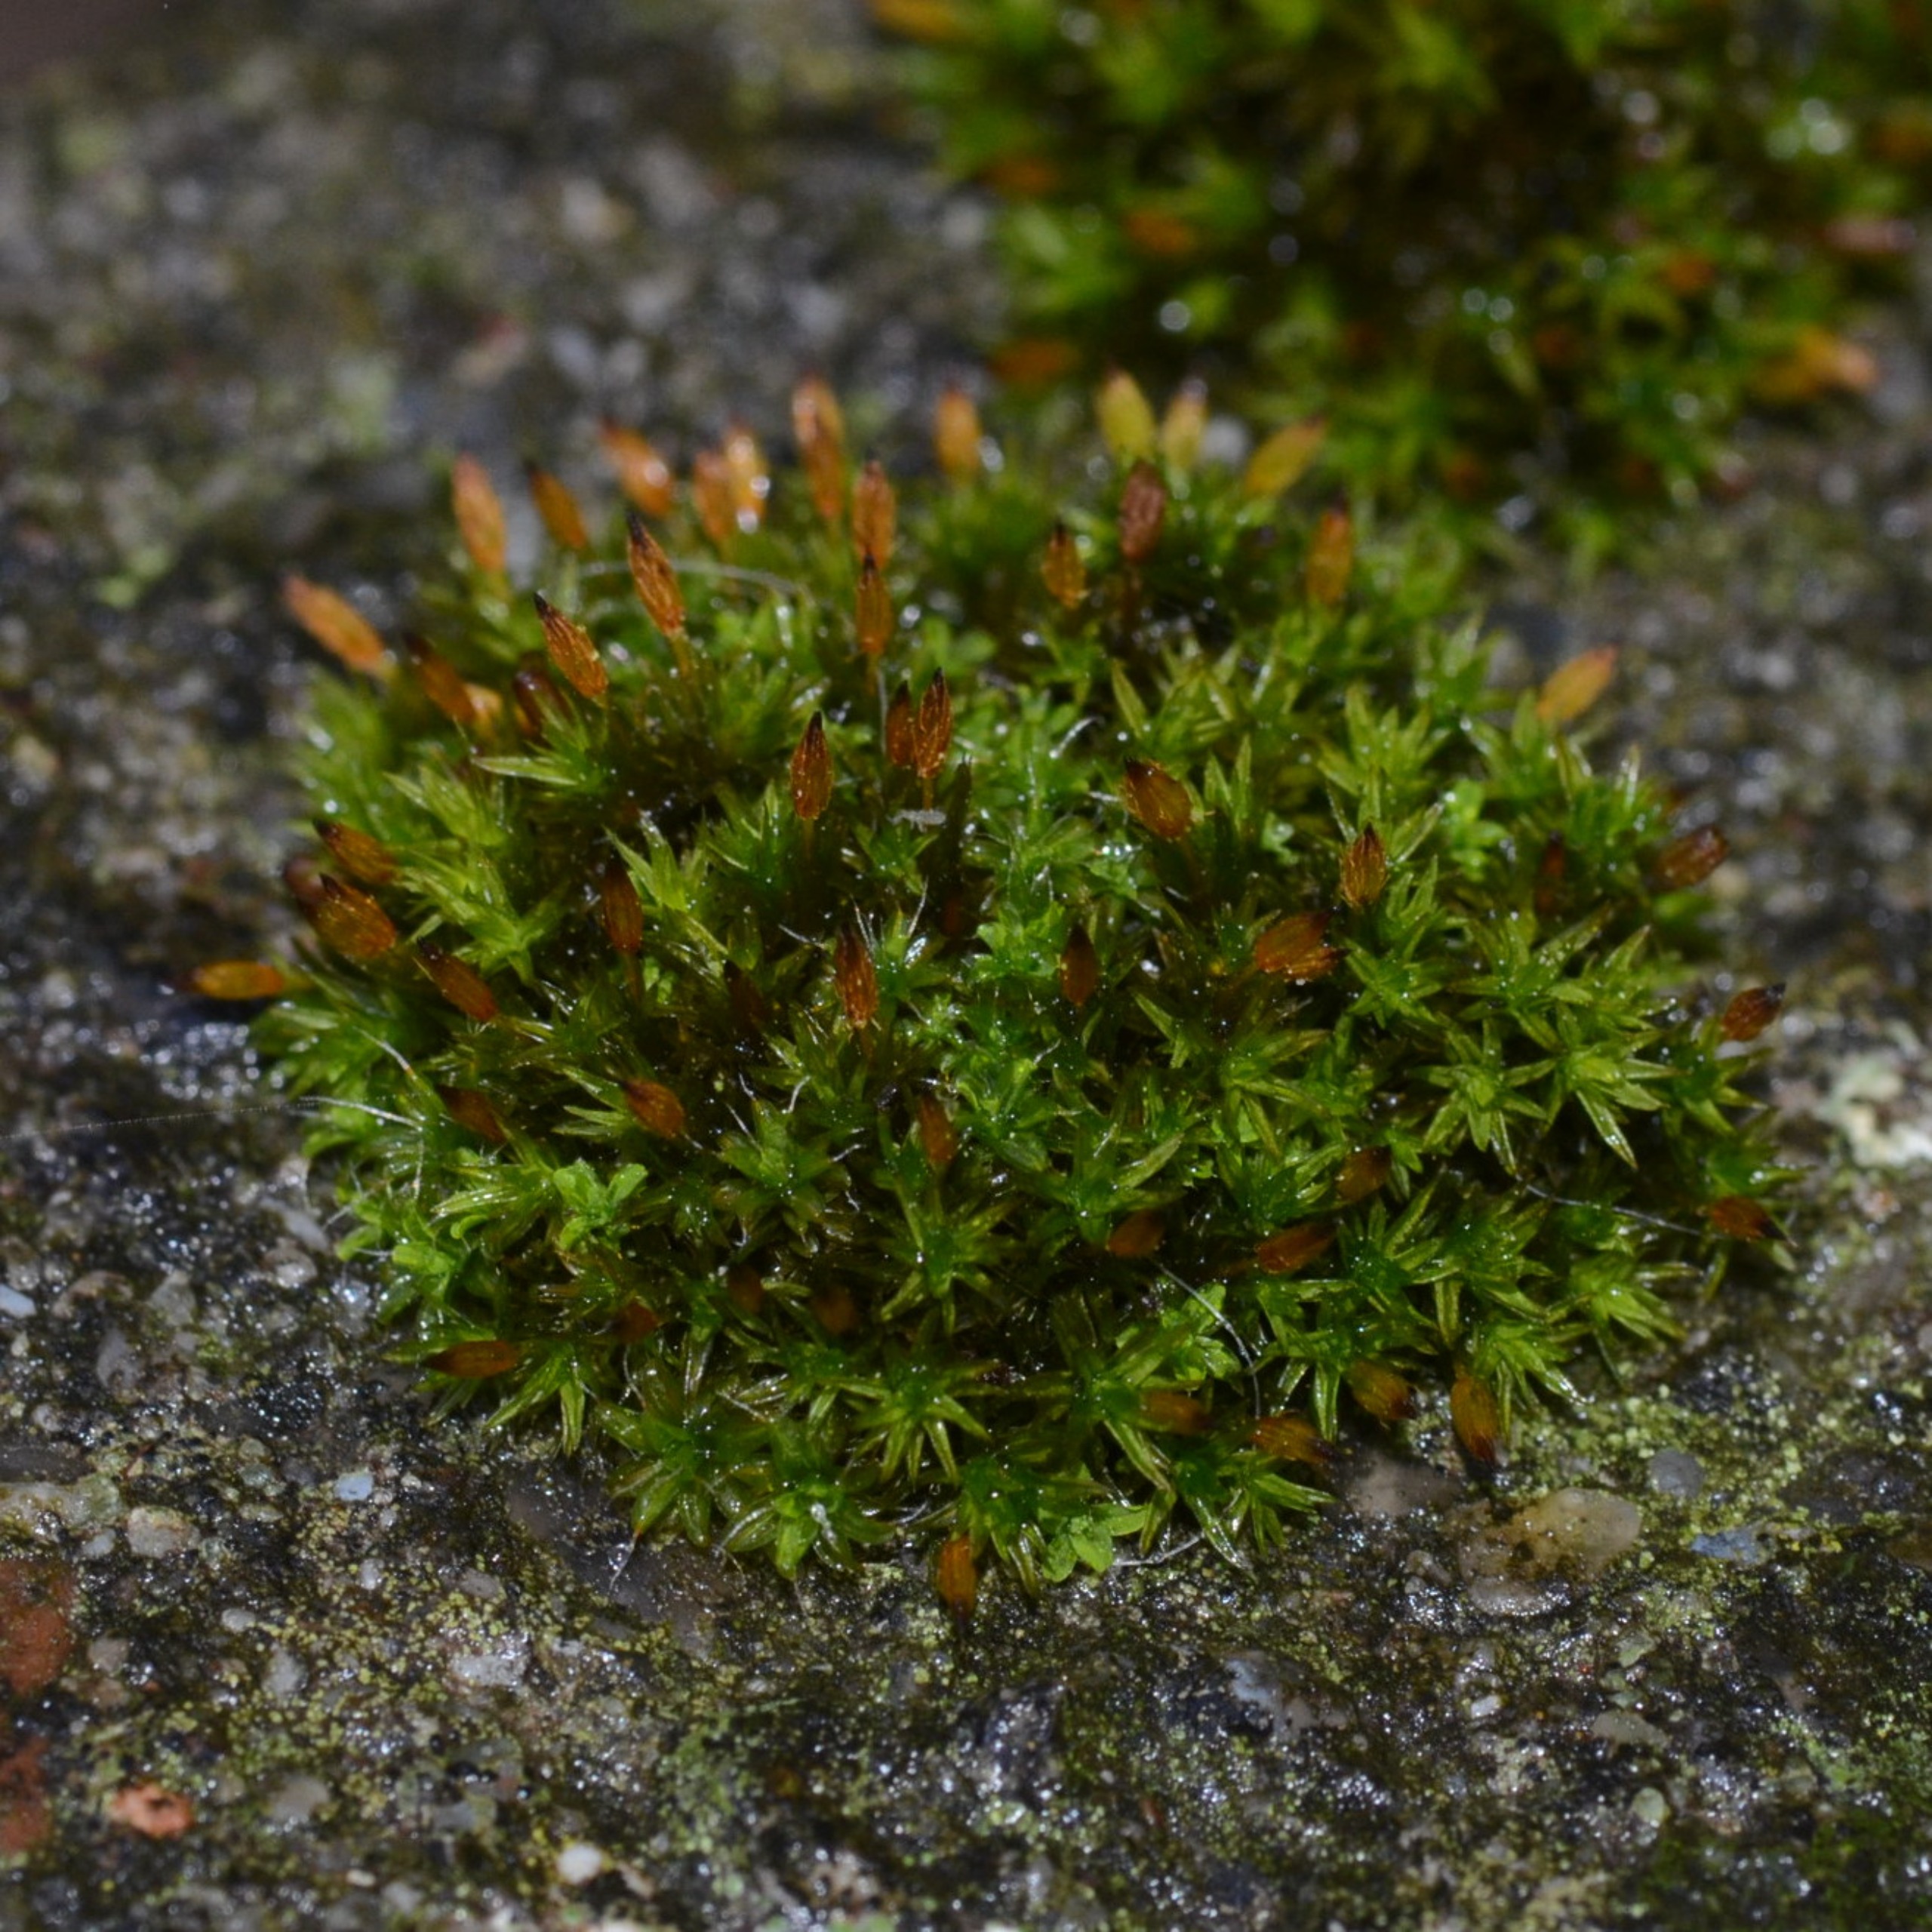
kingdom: Plantae
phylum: Bryophyta
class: Bryopsida
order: Orthotrichales
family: Orthotrichaceae
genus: Orthotrichum
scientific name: Orthotrichum anomalum
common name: Mørk furehætte
